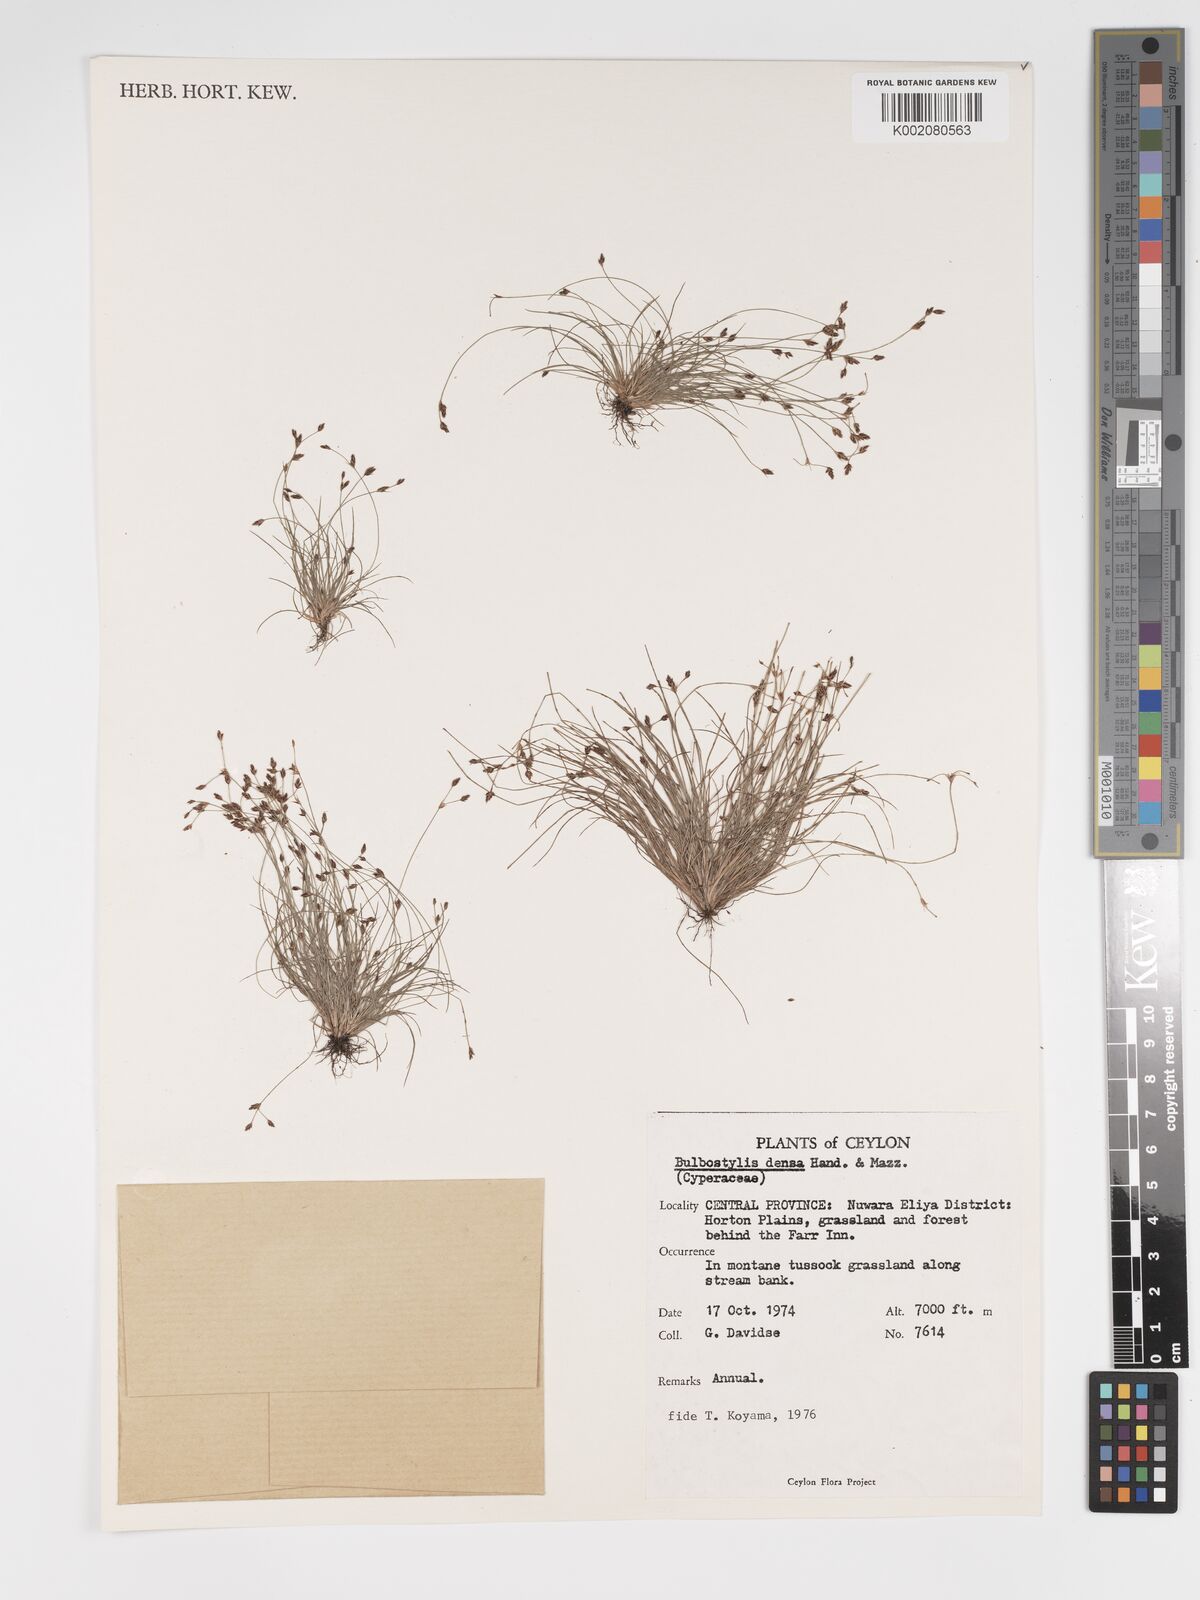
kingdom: Plantae
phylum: Tracheophyta
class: Liliopsida
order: Poales
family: Cyperaceae
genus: Bulbostylis
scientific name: Bulbostylis densa
